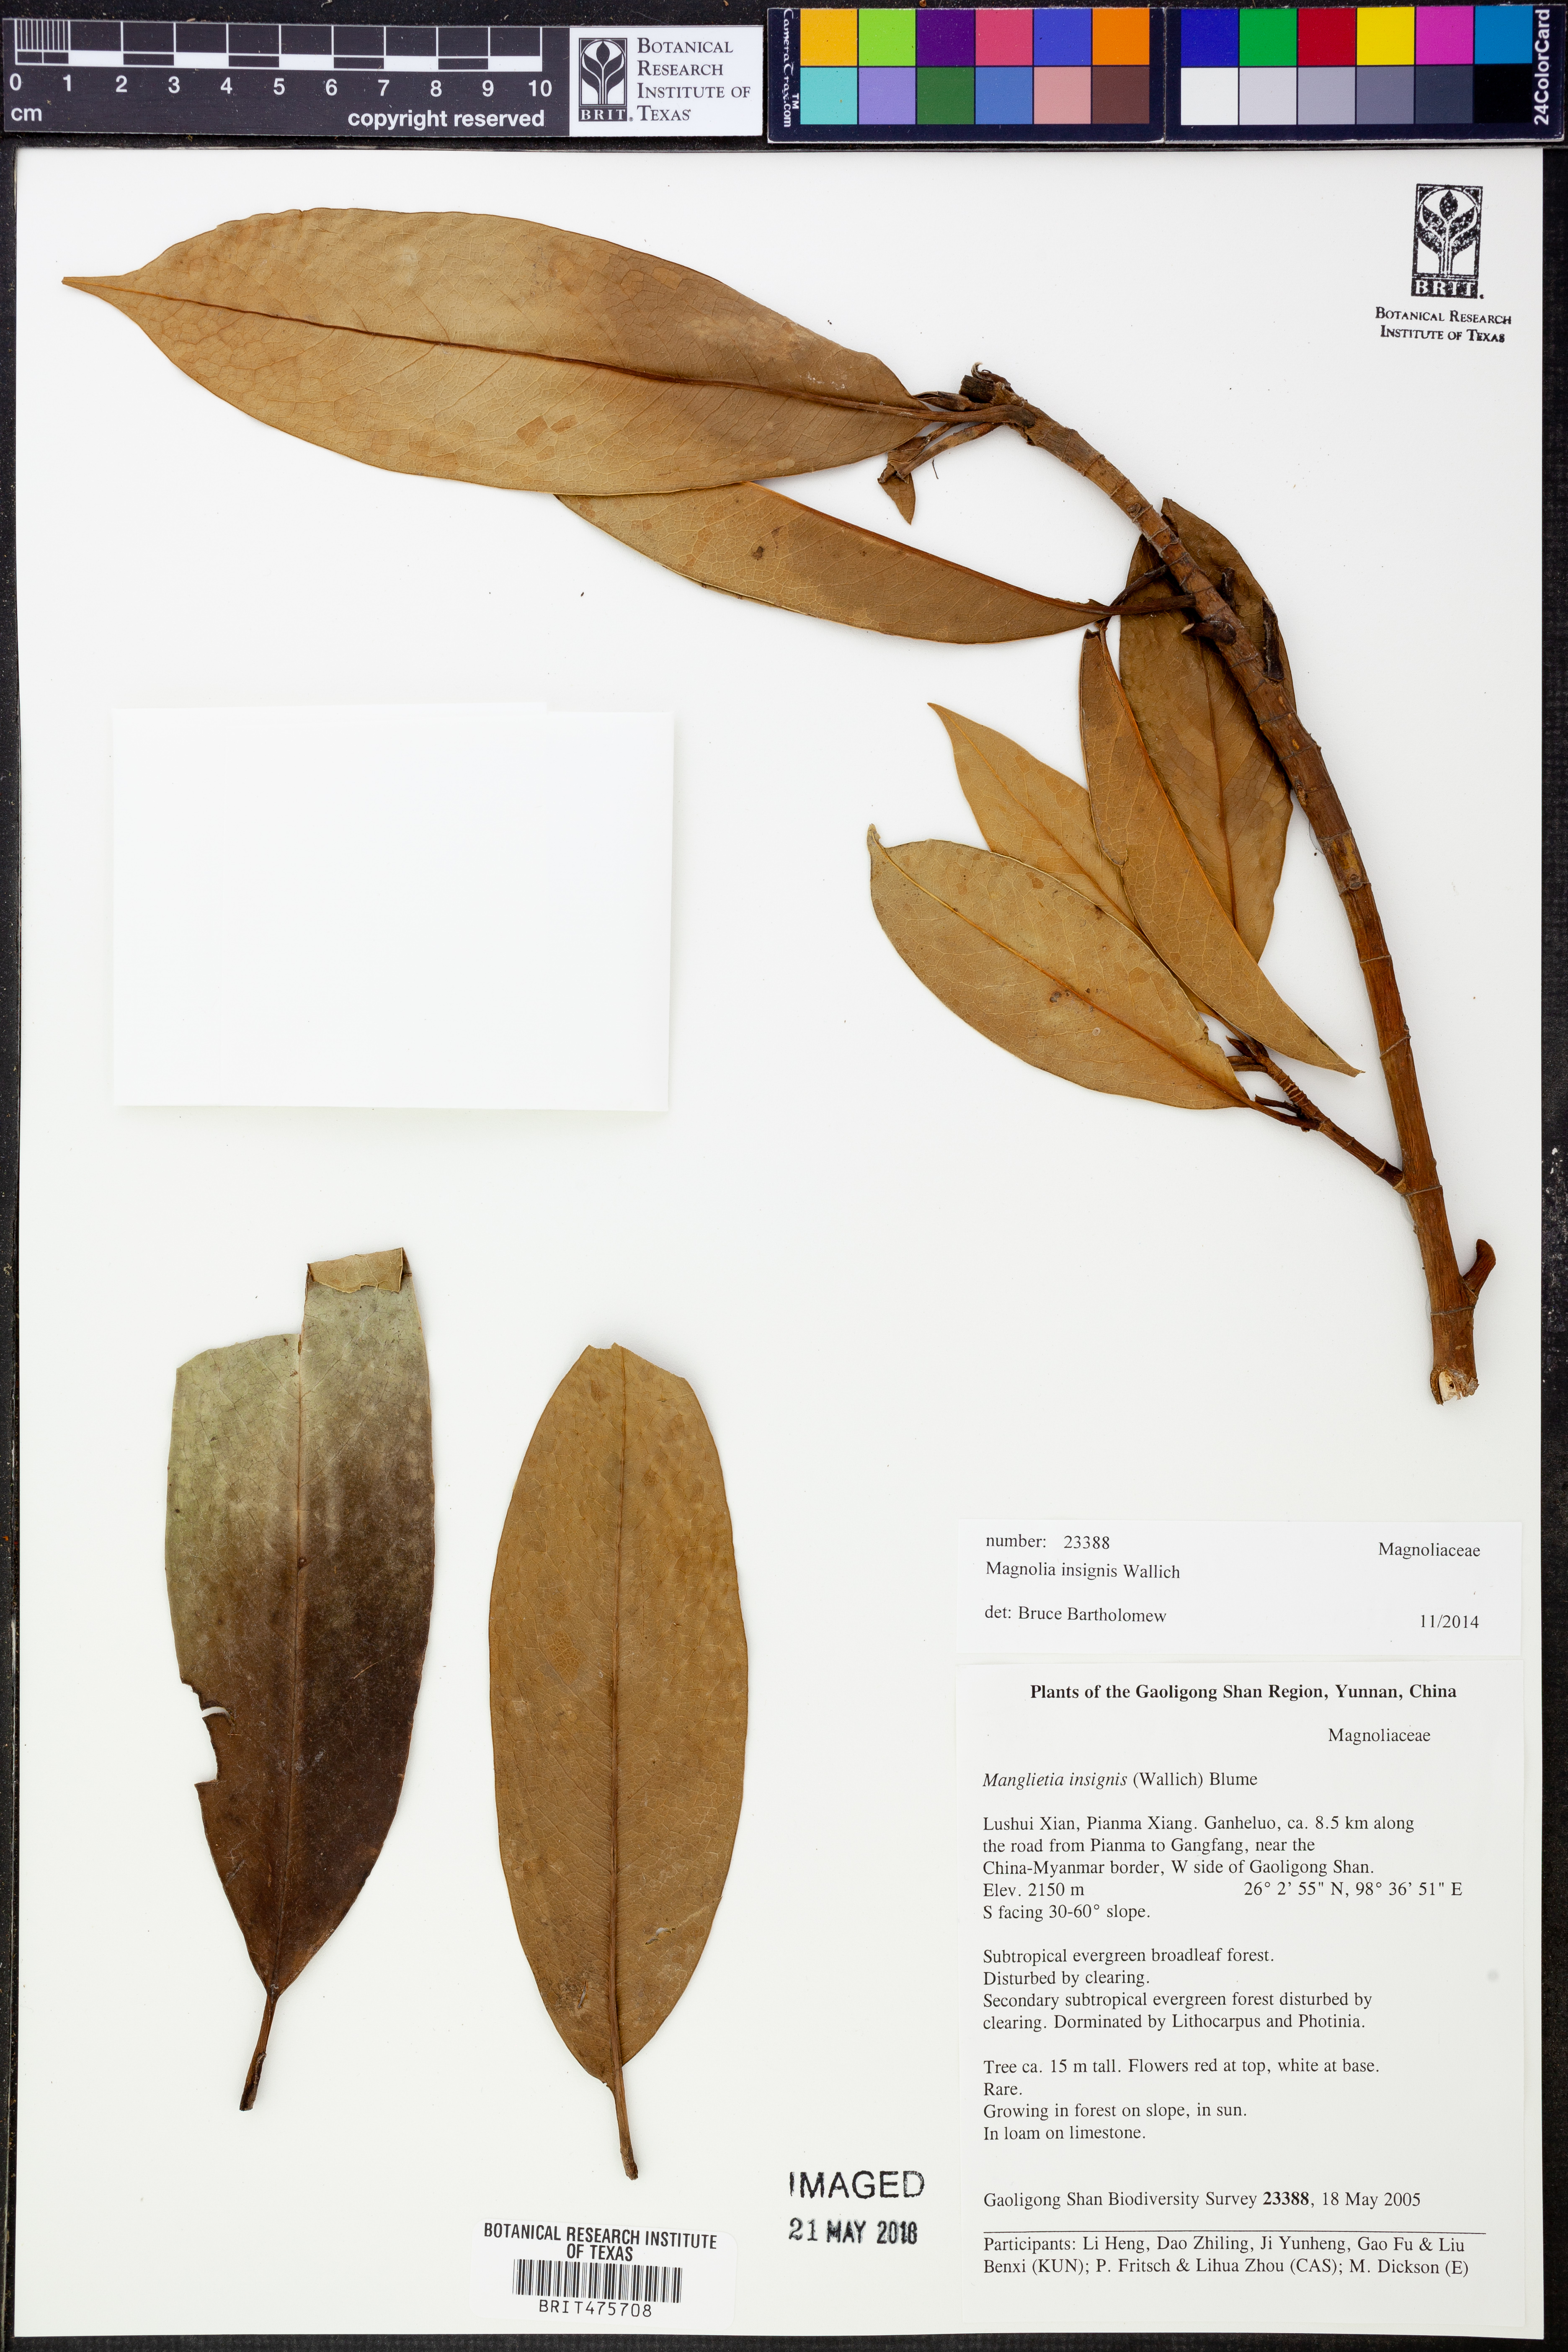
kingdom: Plantae
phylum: Tracheophyta
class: Magnoliopsida
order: Magnoliales
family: Magnoliaceae
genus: Magnolia
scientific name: Magnolia insignis
